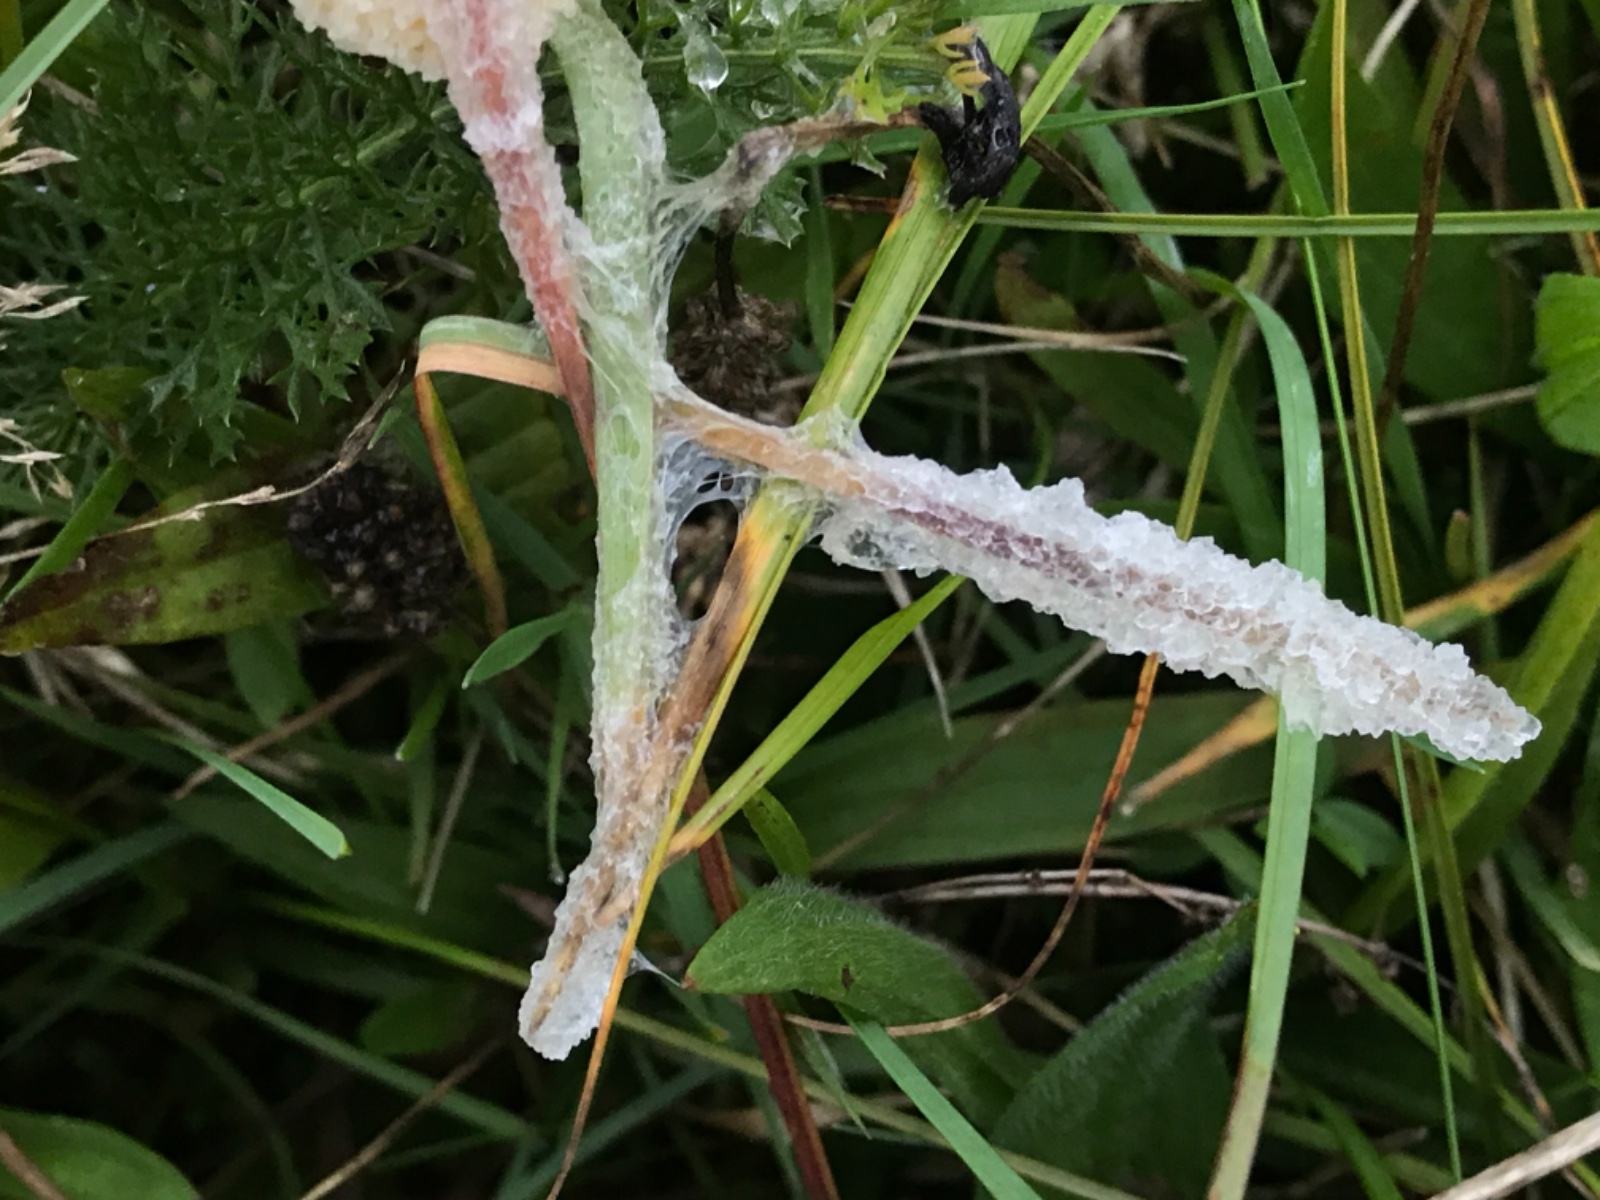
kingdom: Protozoa
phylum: Mycetozoa
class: Myxomycetes
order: Physarales
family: Physaraceae
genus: Didymium
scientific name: Didymium
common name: urteskum
